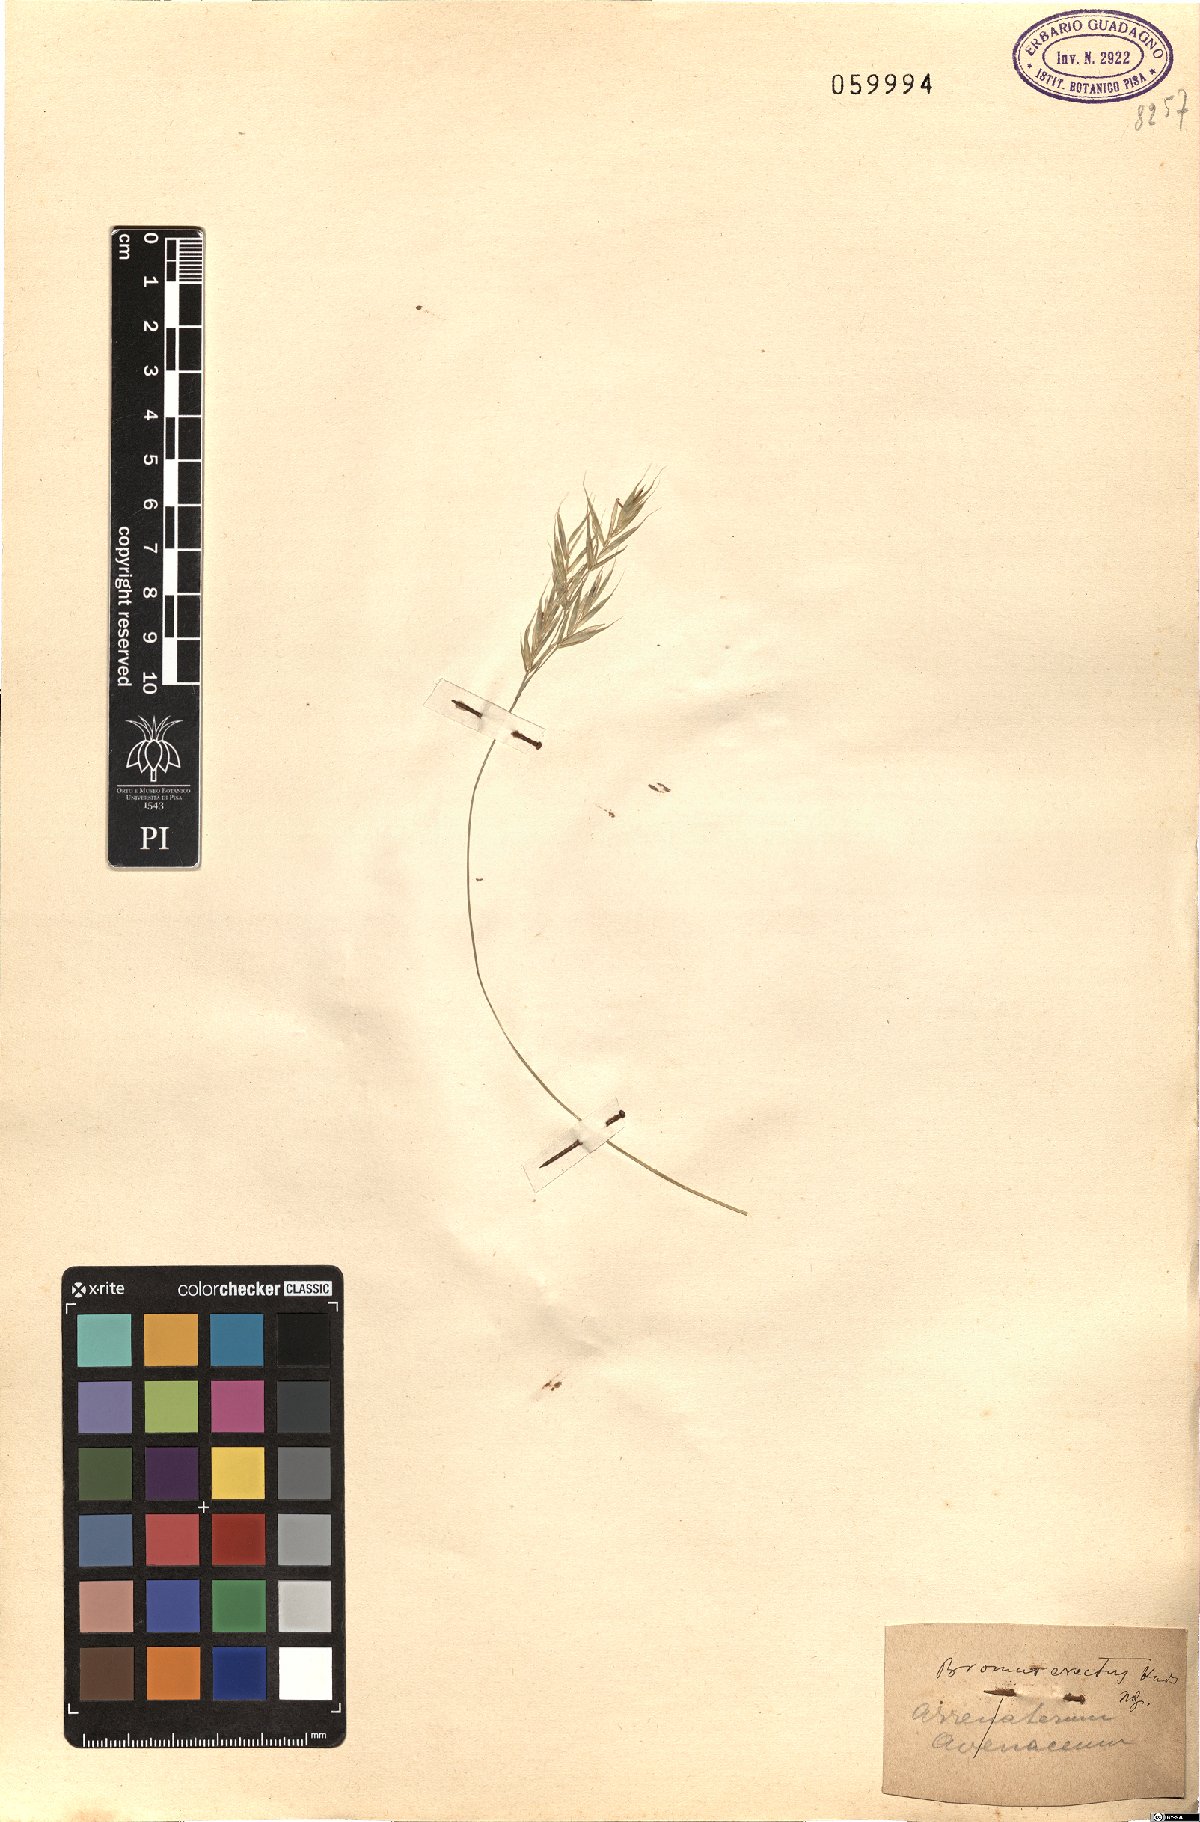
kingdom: Plantae
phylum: Tracheophyta
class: Liliopsida
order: Poales
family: Poaceae
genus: Bromus
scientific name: Bromus erectus
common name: Erect brome
